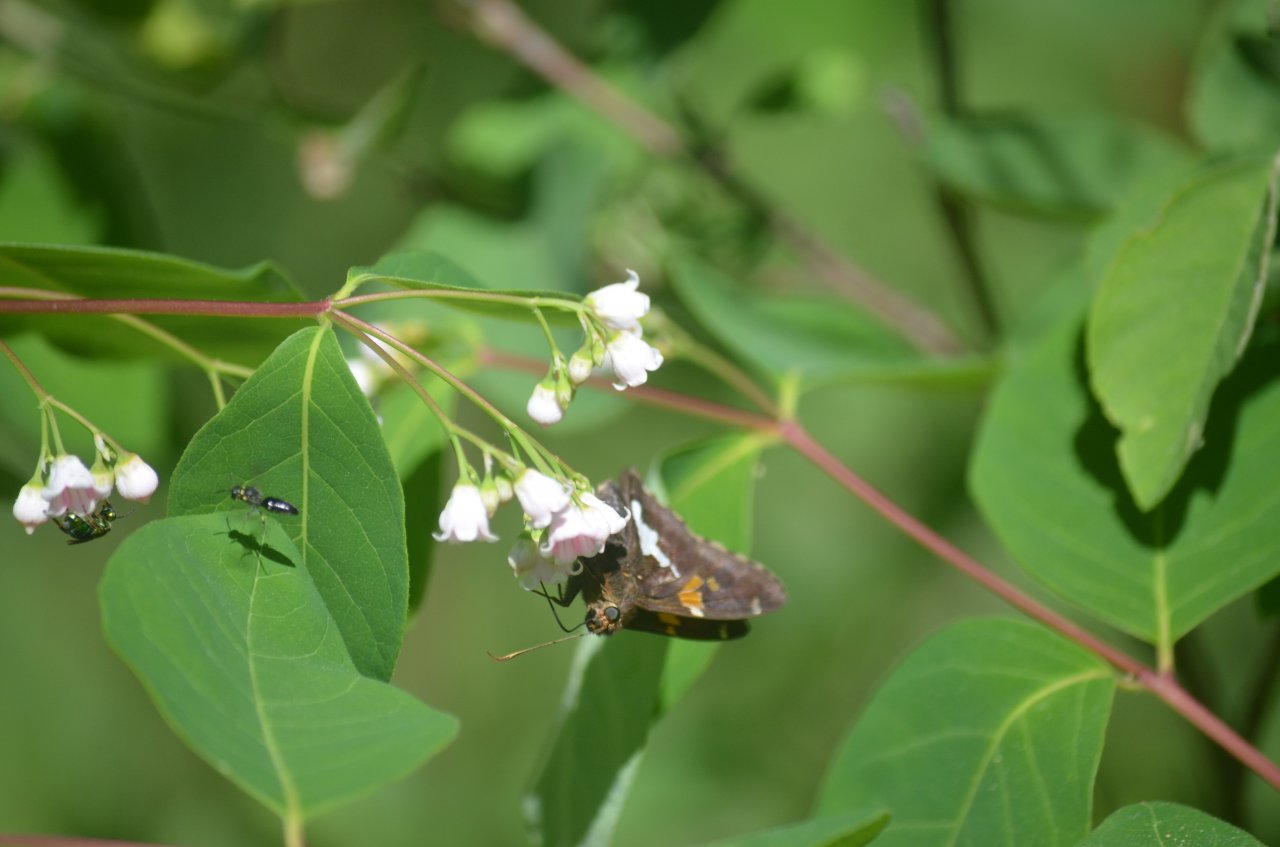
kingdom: Animalia
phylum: Arthropoda
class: Insecta
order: Lepidoptera
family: Hesperiidae
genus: Epargyreus
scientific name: Epargyreus clarus
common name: Silver-spotted Skipper
